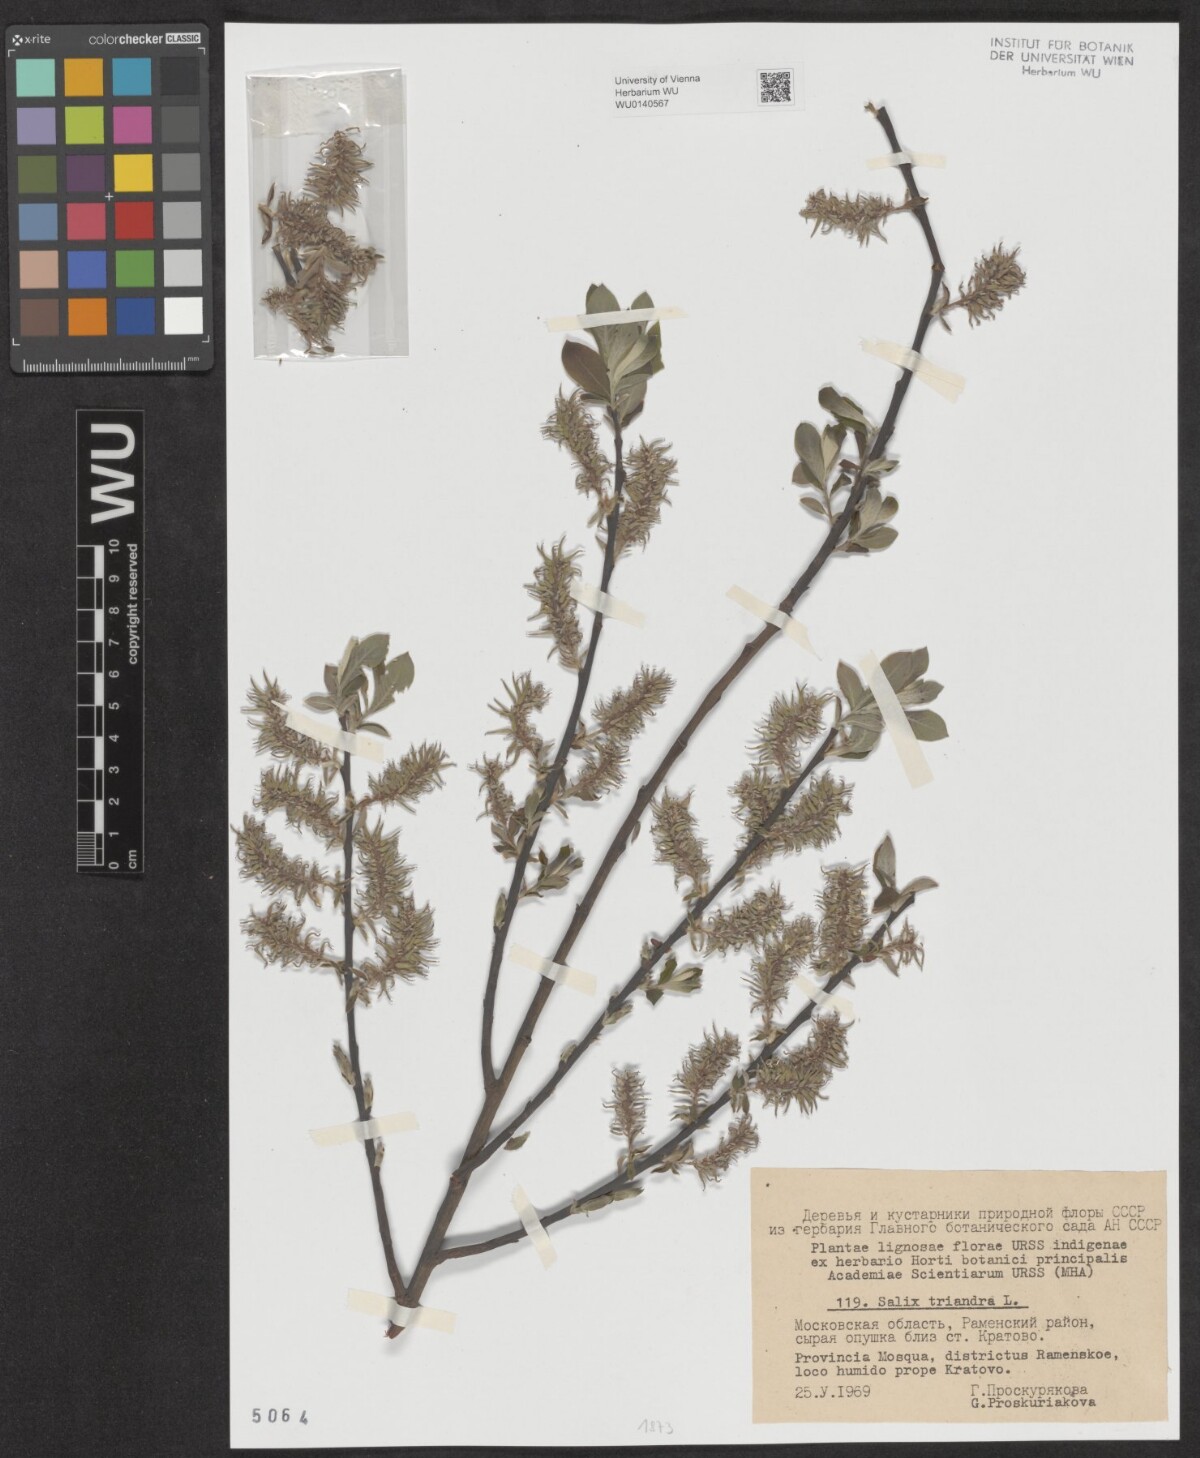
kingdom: Plantae
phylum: Tracheophyta
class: Magnoliopsida
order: Malpighiales
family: Salicaceae
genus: Salix
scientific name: Salix triandra
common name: Almond willow
